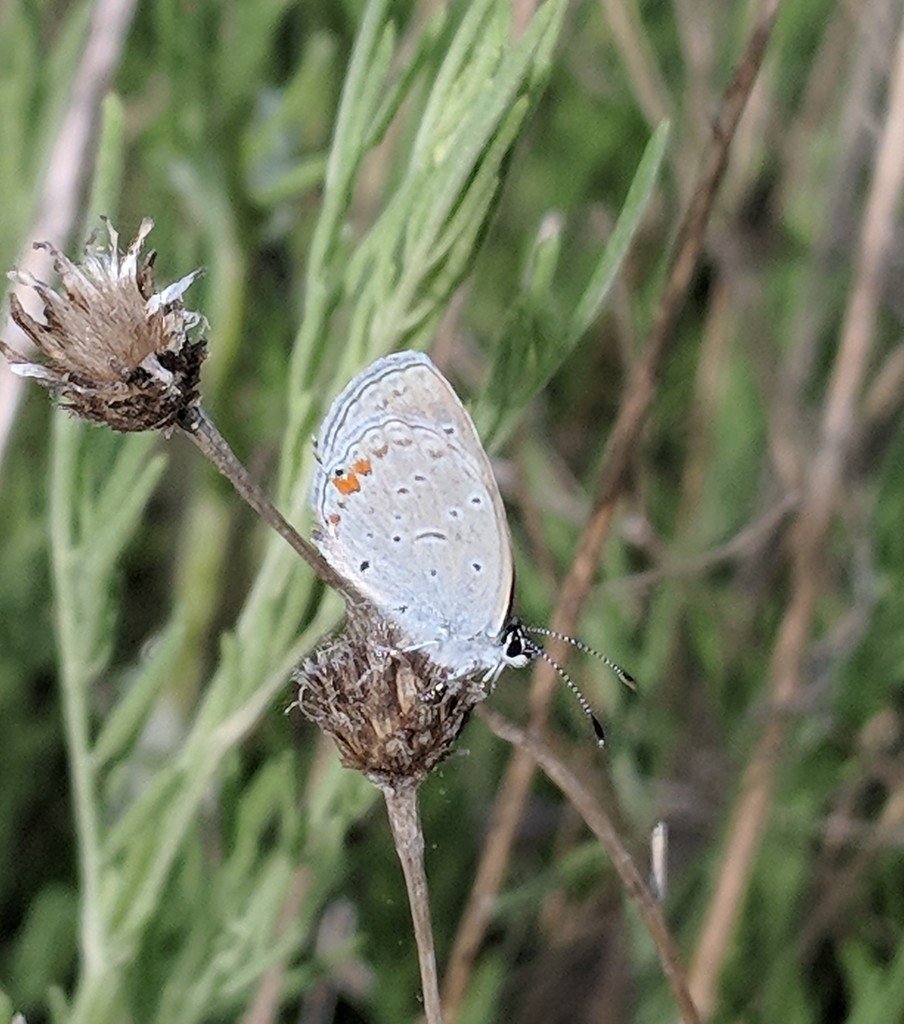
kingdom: Animalia
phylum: Arthropoda
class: Insecta
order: Lepidoptera
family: Lycaenidae
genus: Elkalyce
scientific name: Elkalyce comyntas
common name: Eastern Tailed-Blue
